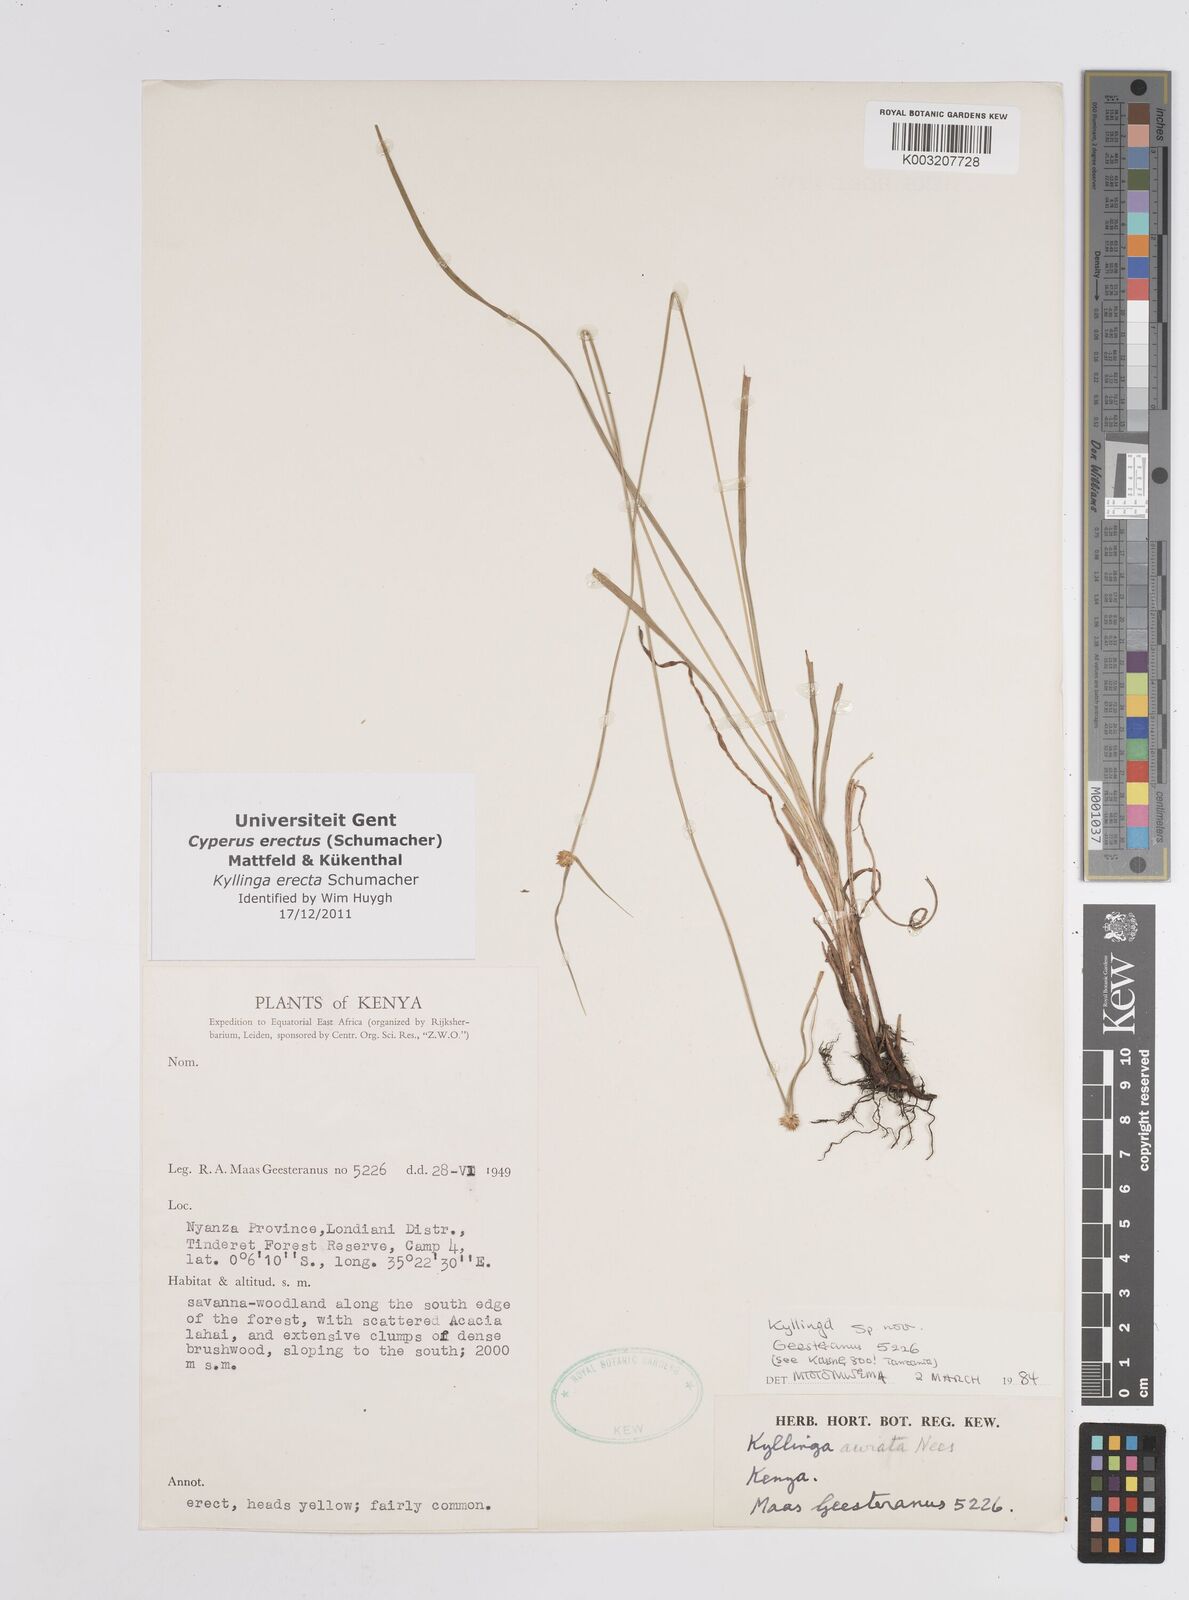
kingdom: Plantae
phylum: Tracheophyta
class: Liliopsida
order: Poales
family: Cyperaceae
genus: Cyperus
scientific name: Cyperus erectus
